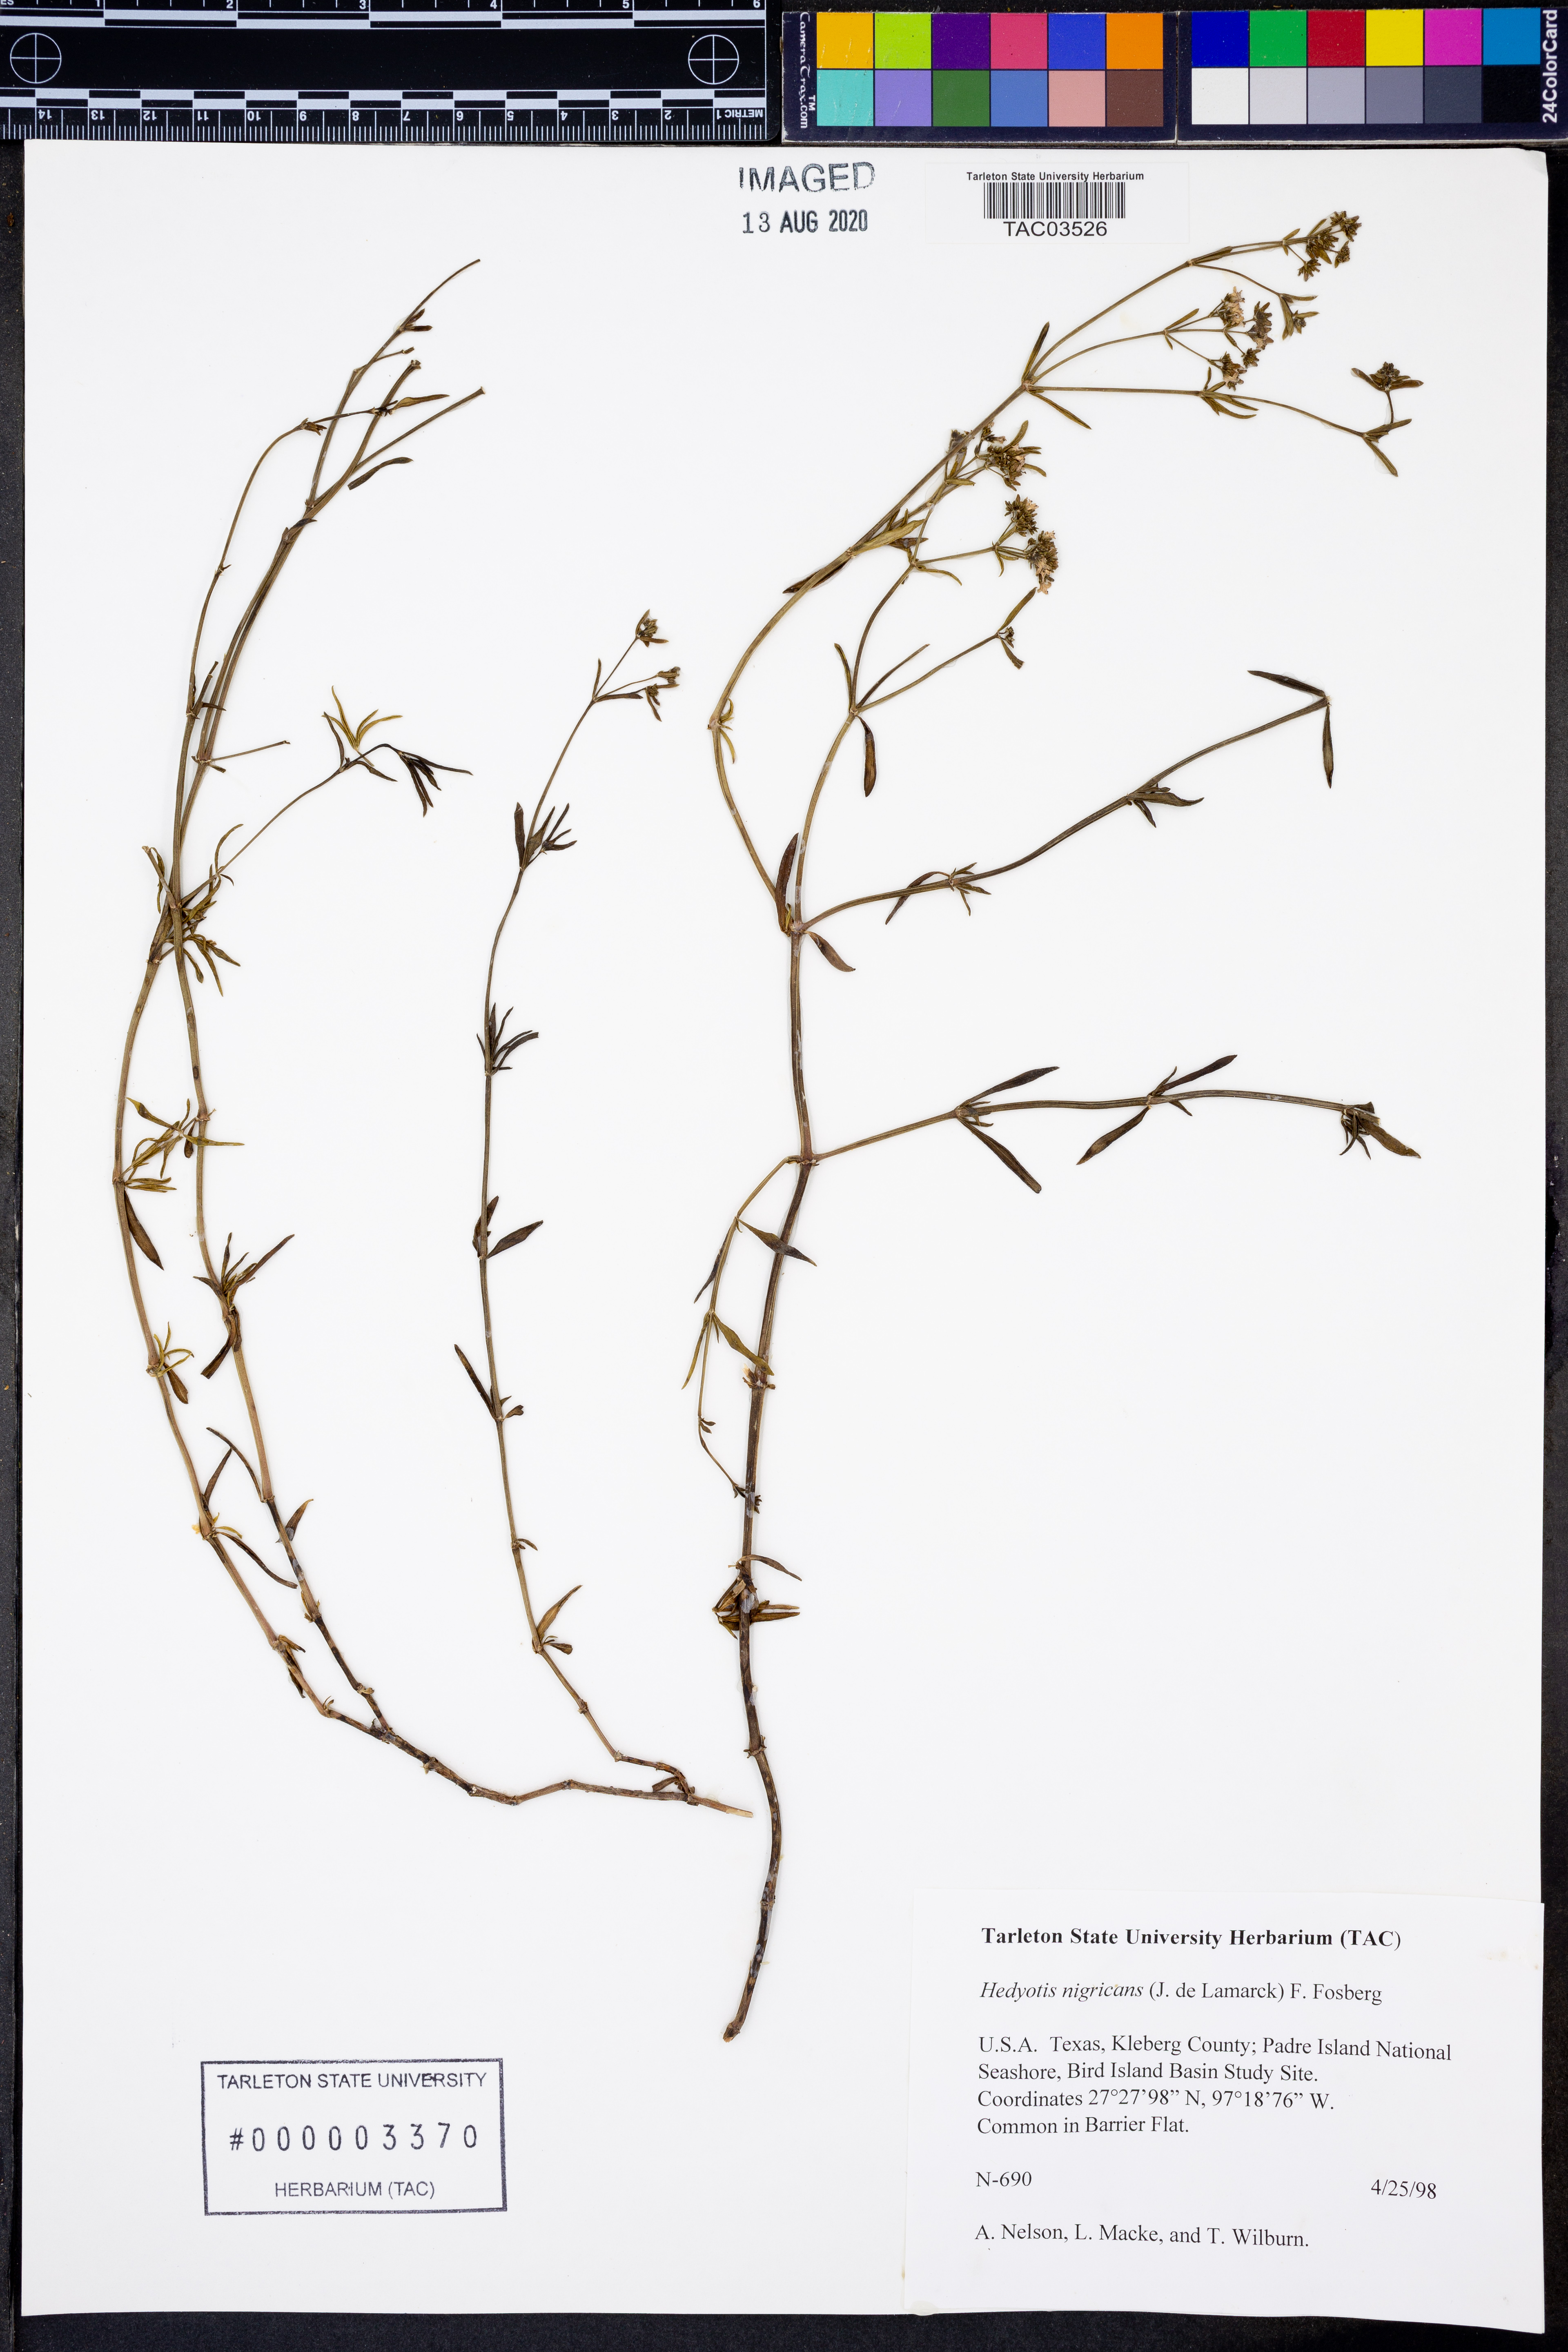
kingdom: Plantae
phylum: Tracheophyta
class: Magnoliopsida
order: Gentianales
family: Rubiaceae
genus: Stenaria
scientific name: Stenaria nigricans
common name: Diamondflowers
